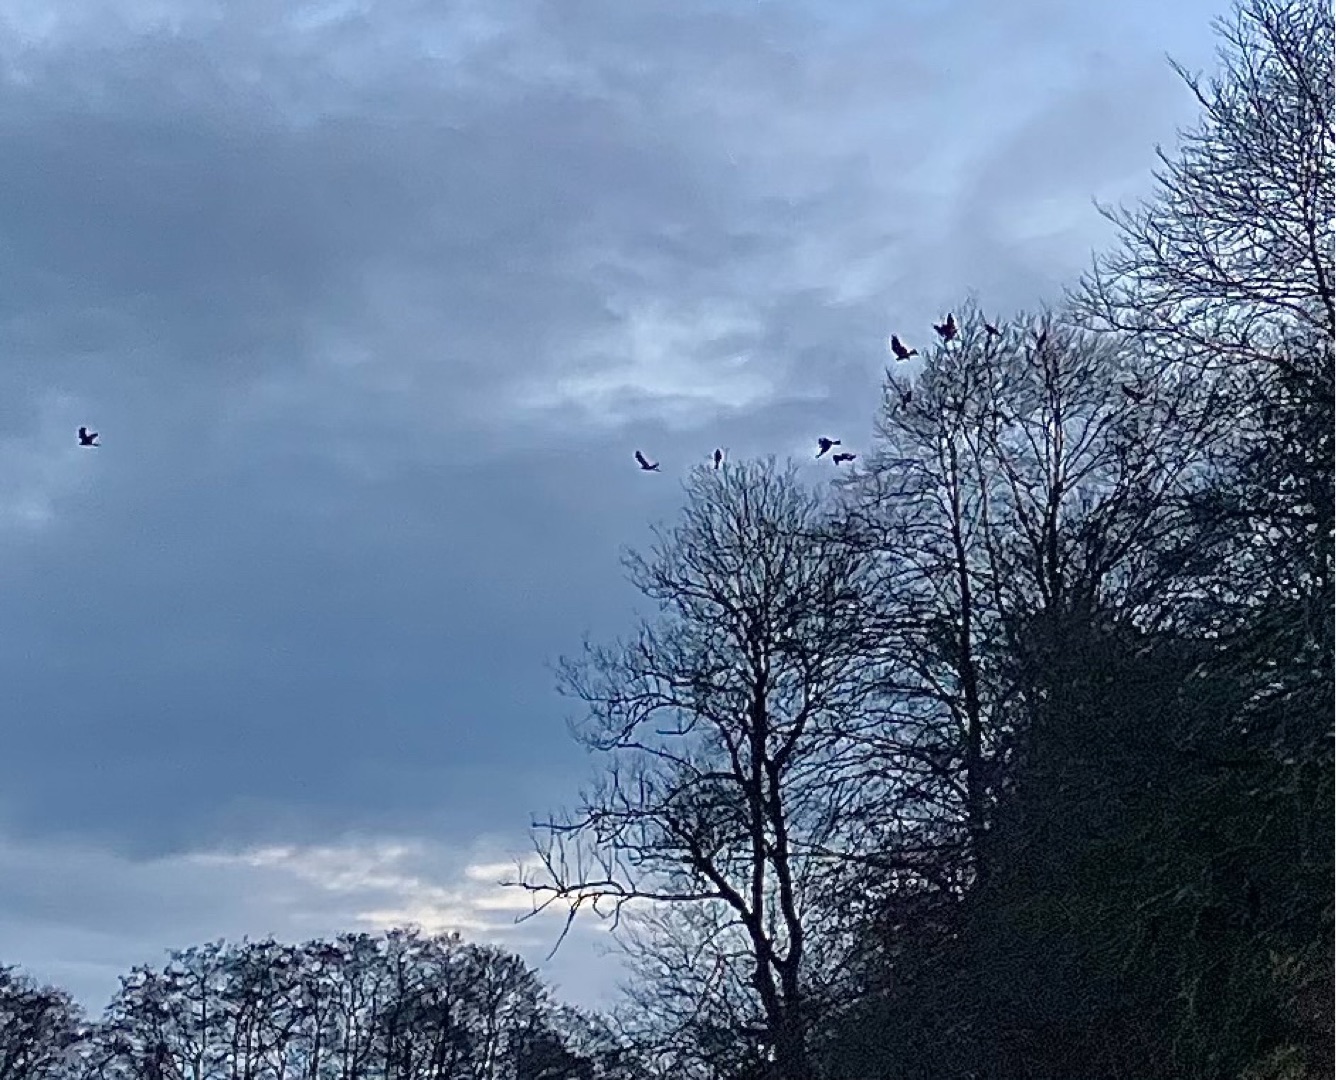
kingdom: Animalia
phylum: Chordata
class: Aves
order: Accipitriformes
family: Accipitridae
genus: Milvus
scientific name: Milvus milvus
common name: Rød glente
